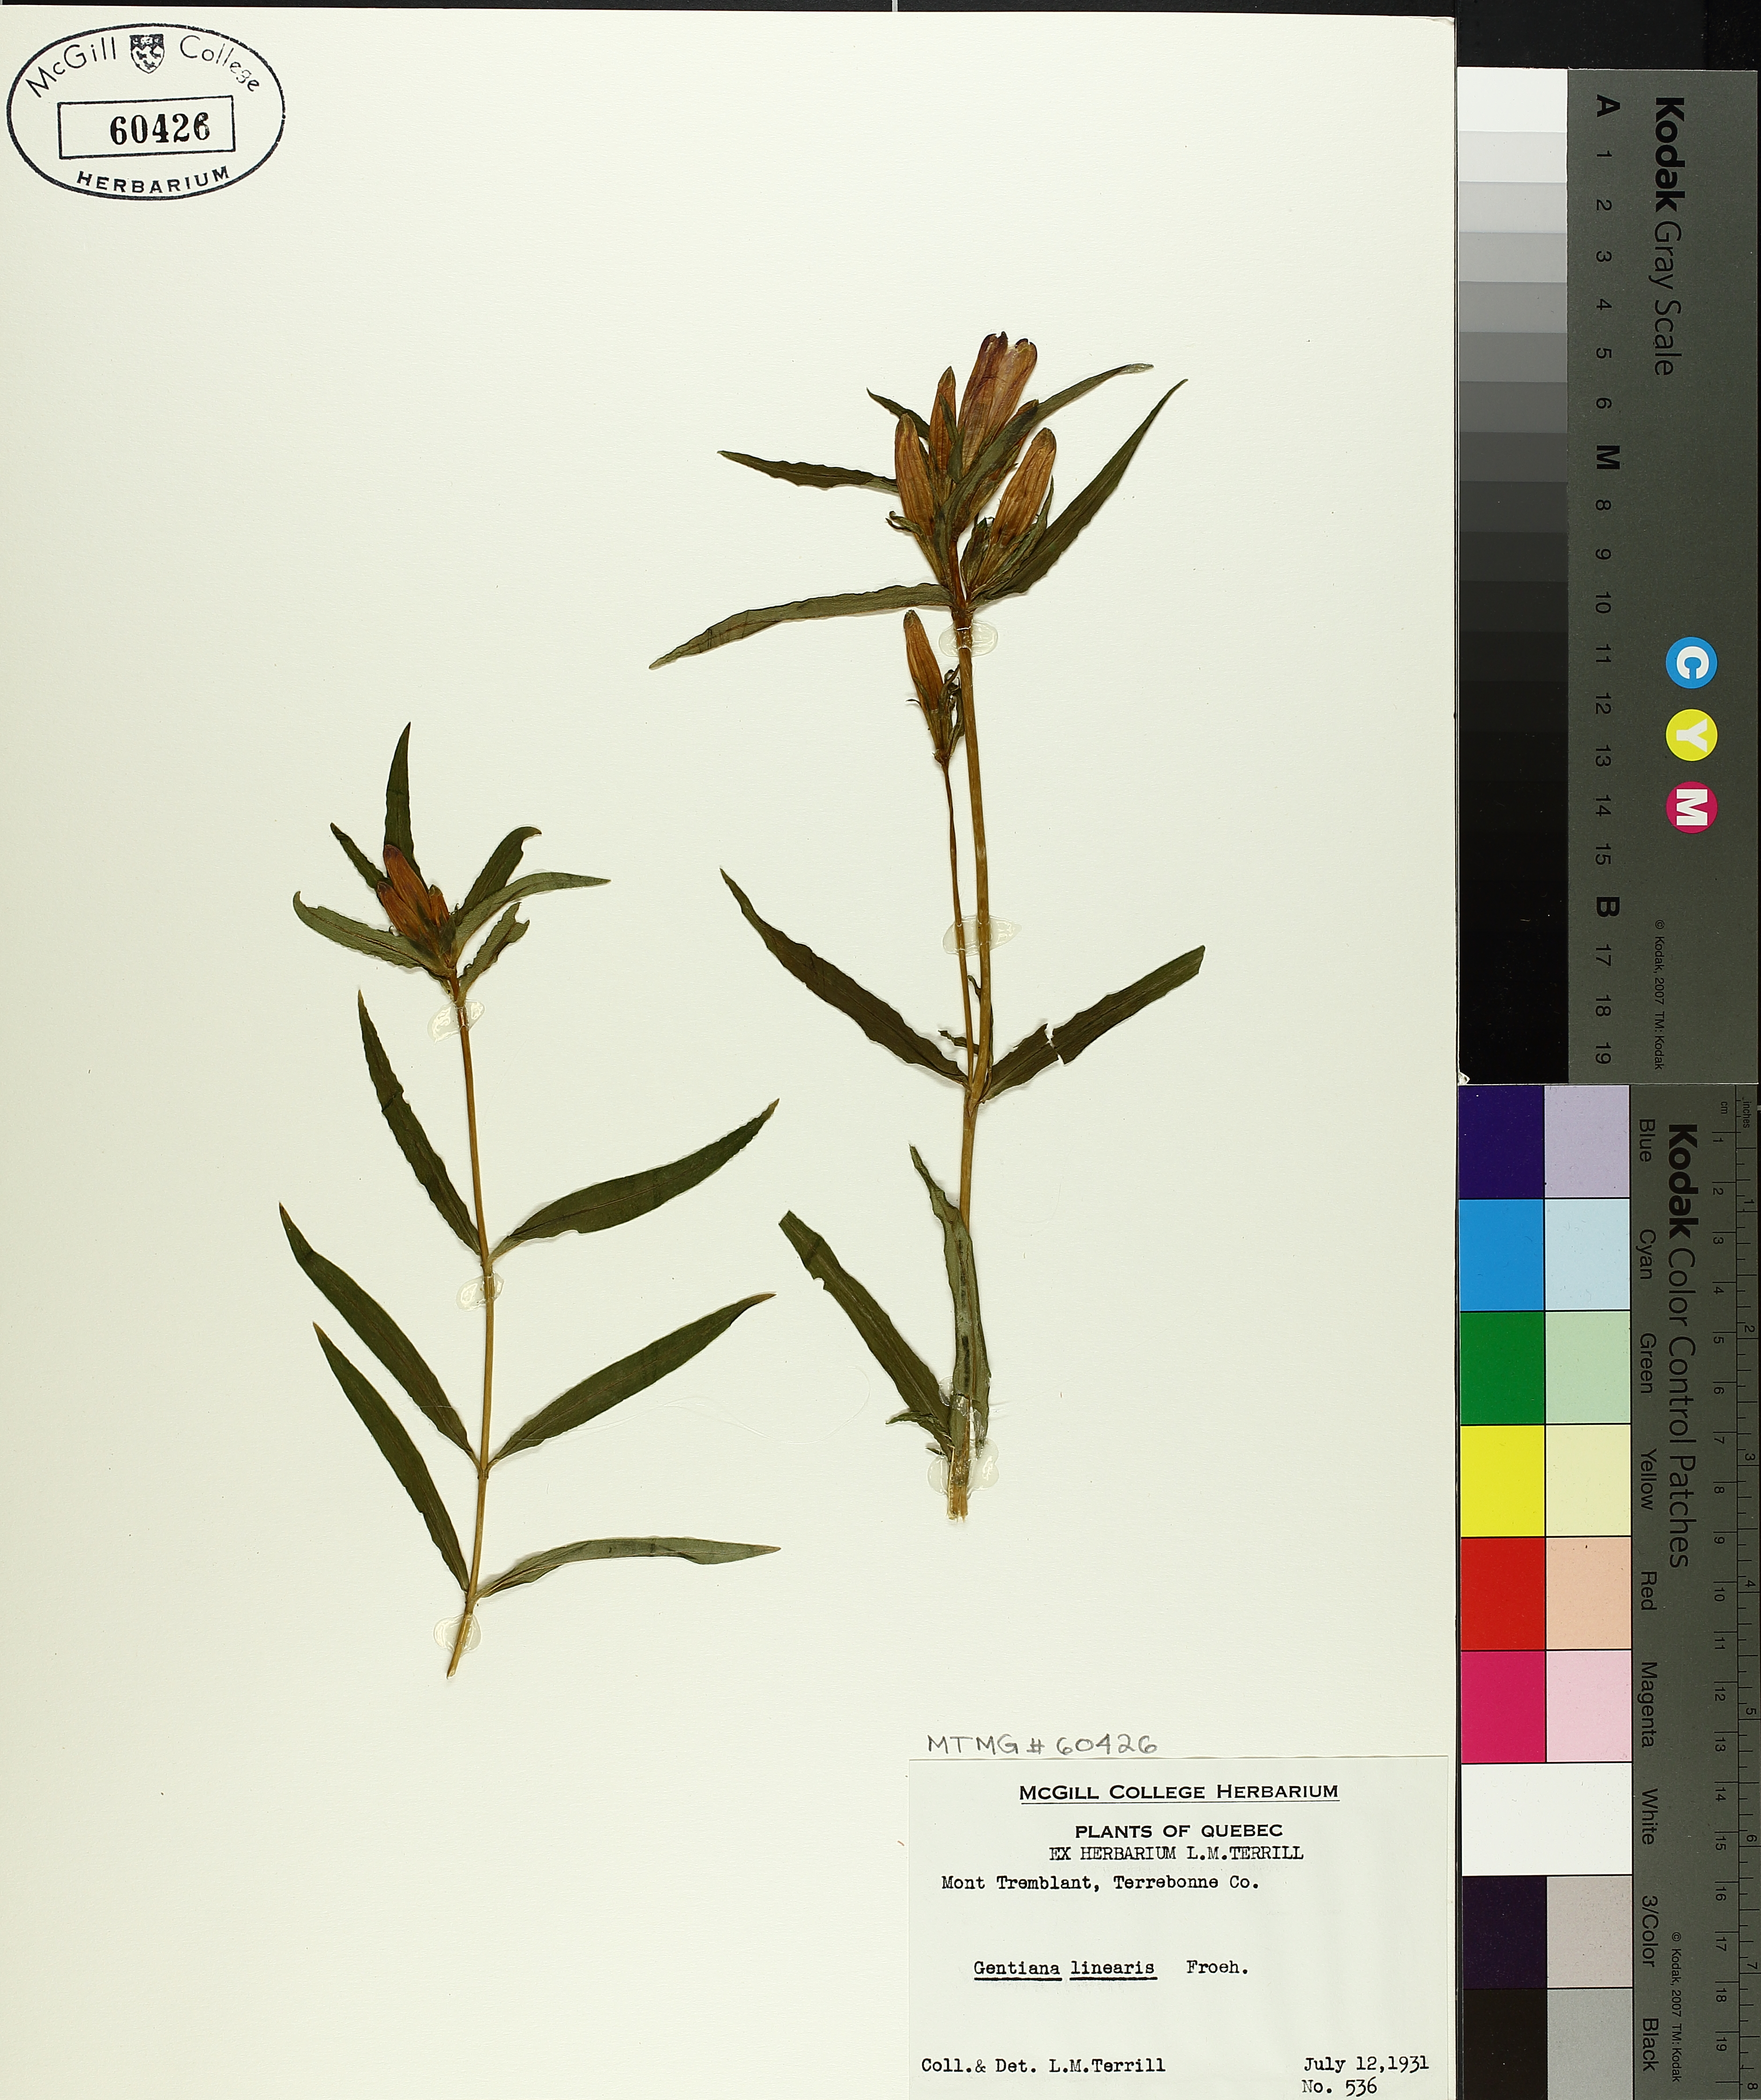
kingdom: Plantae
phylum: Tracheophyta
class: Magnoliopsida
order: Gentianales
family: Gentianaceae
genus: Gentiana
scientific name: Gentiana linearis
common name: Bastard gentian
